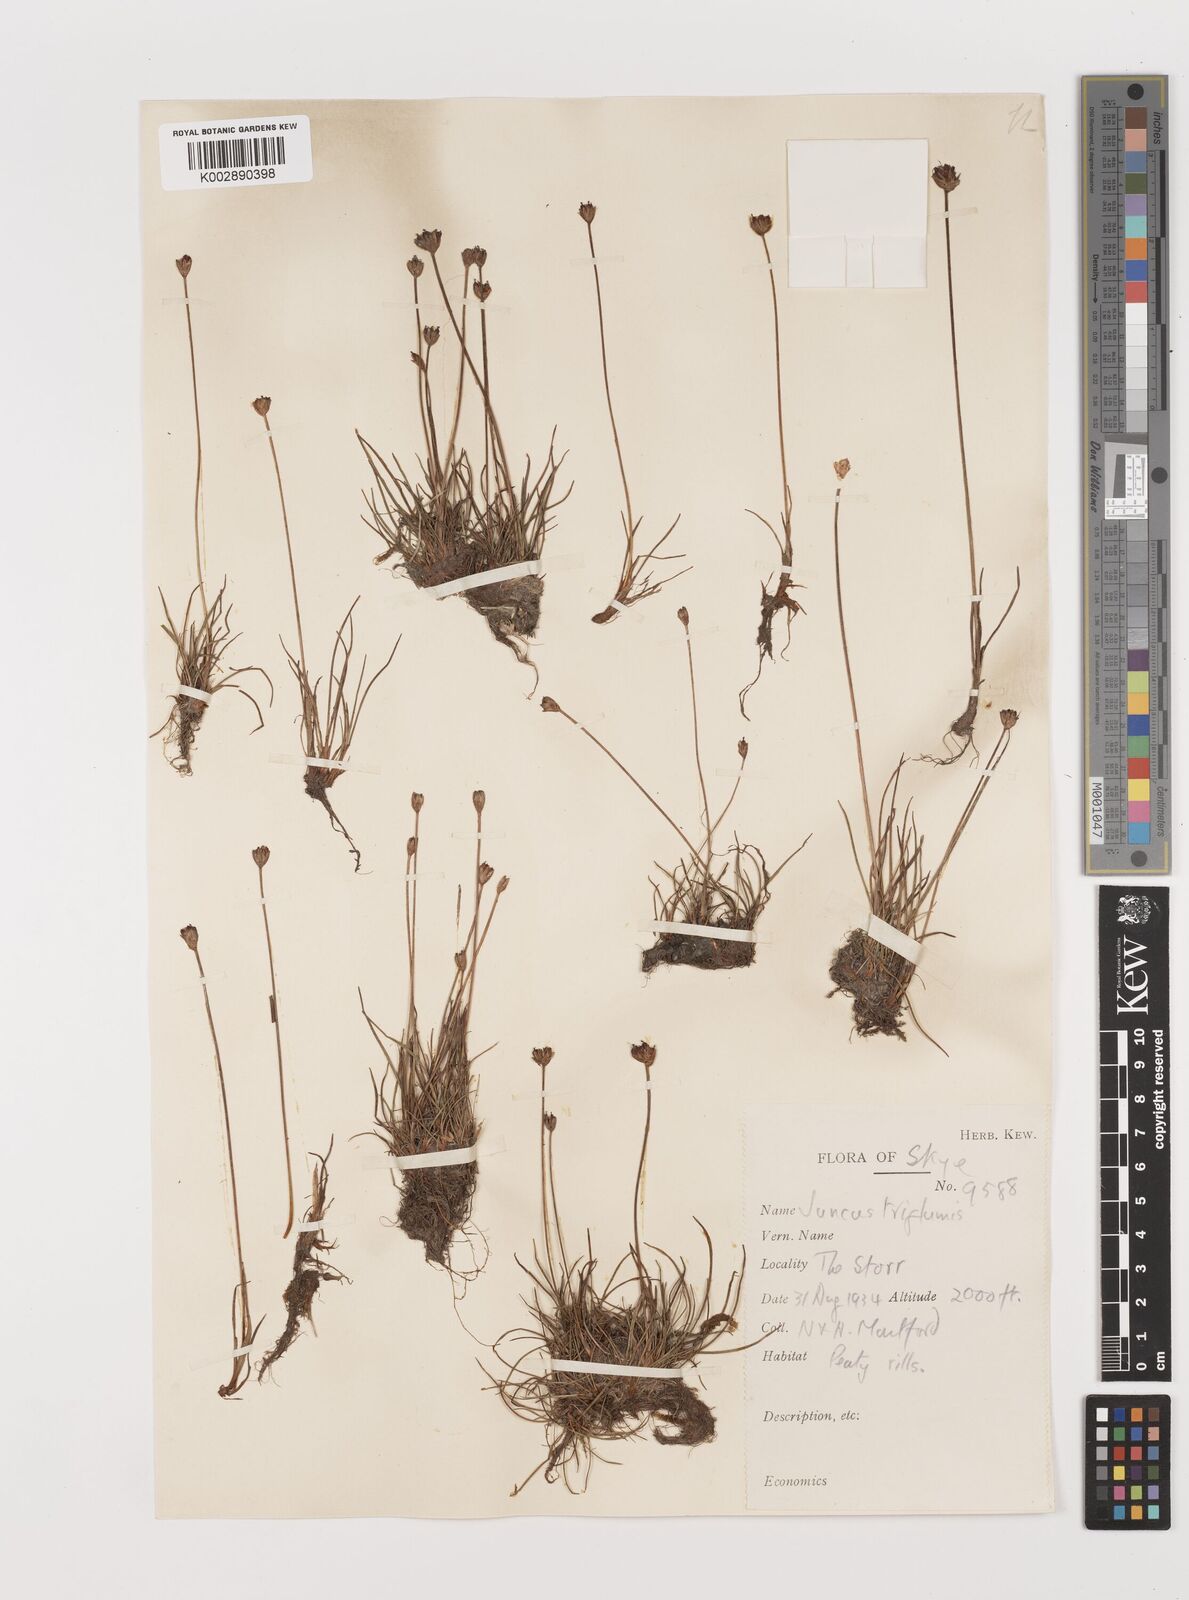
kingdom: Plantae
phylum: Tracheophyta
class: Liliopsida
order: Poales
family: Juncaceae
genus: Juncus
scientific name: Juncus triglumis
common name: Three-flowered rush
